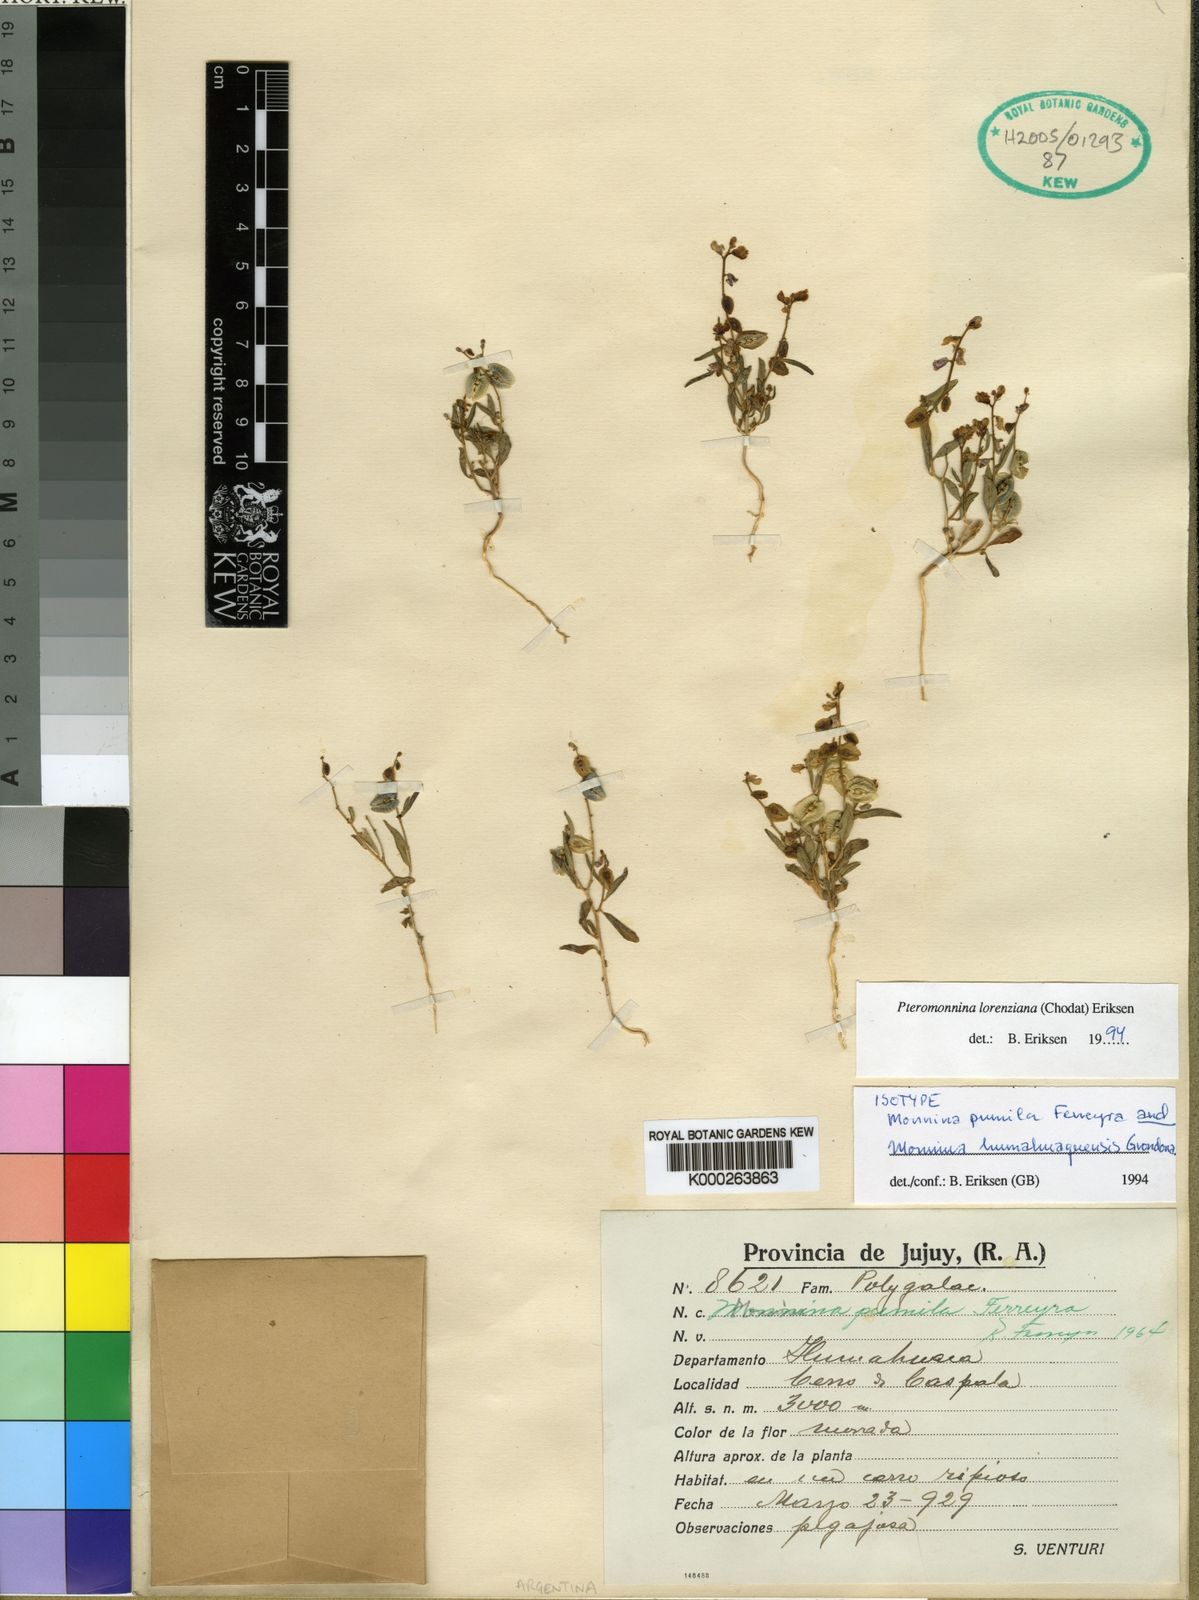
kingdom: Plantae
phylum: Tracheophyta
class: Magnoliopsida
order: Fabales
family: Polygalaceae
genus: Monnina
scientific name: Monnina
